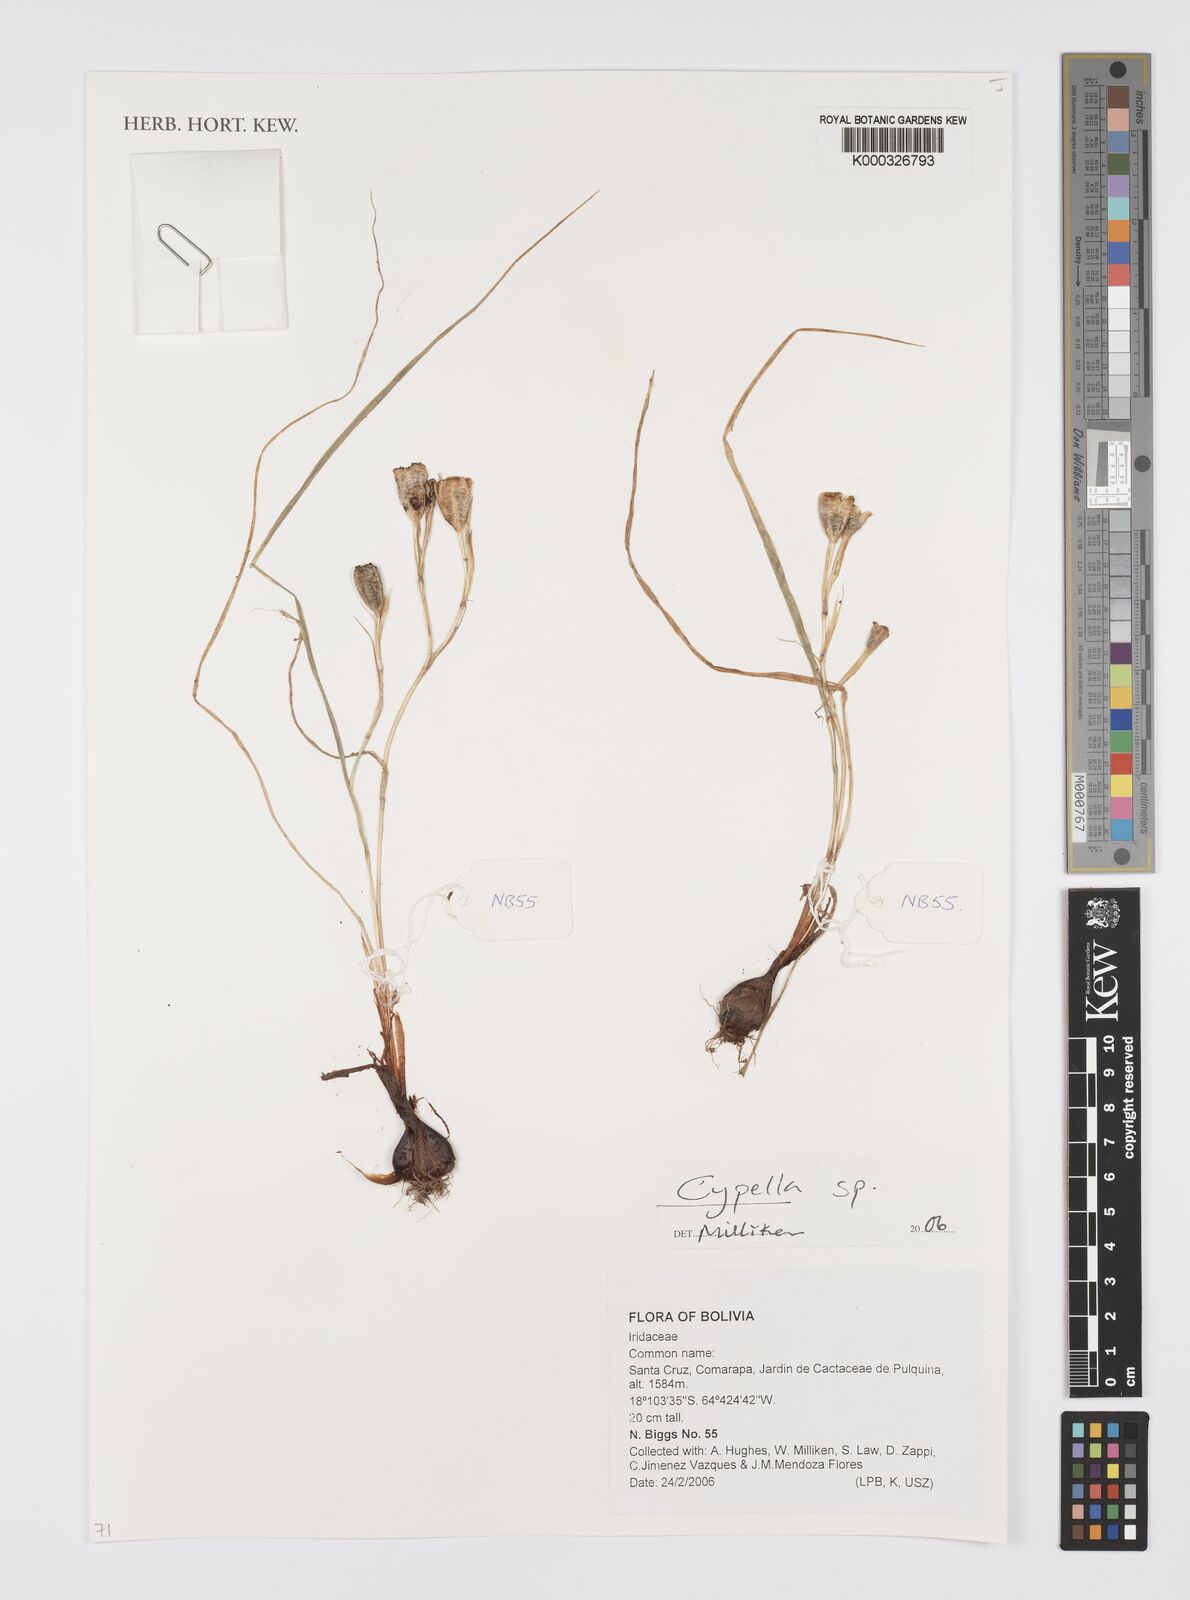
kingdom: Plantae
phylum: Tracheophyta
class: Liliopsida
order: Asparagales
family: Iridaceae
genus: Cypella
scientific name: Cypella
